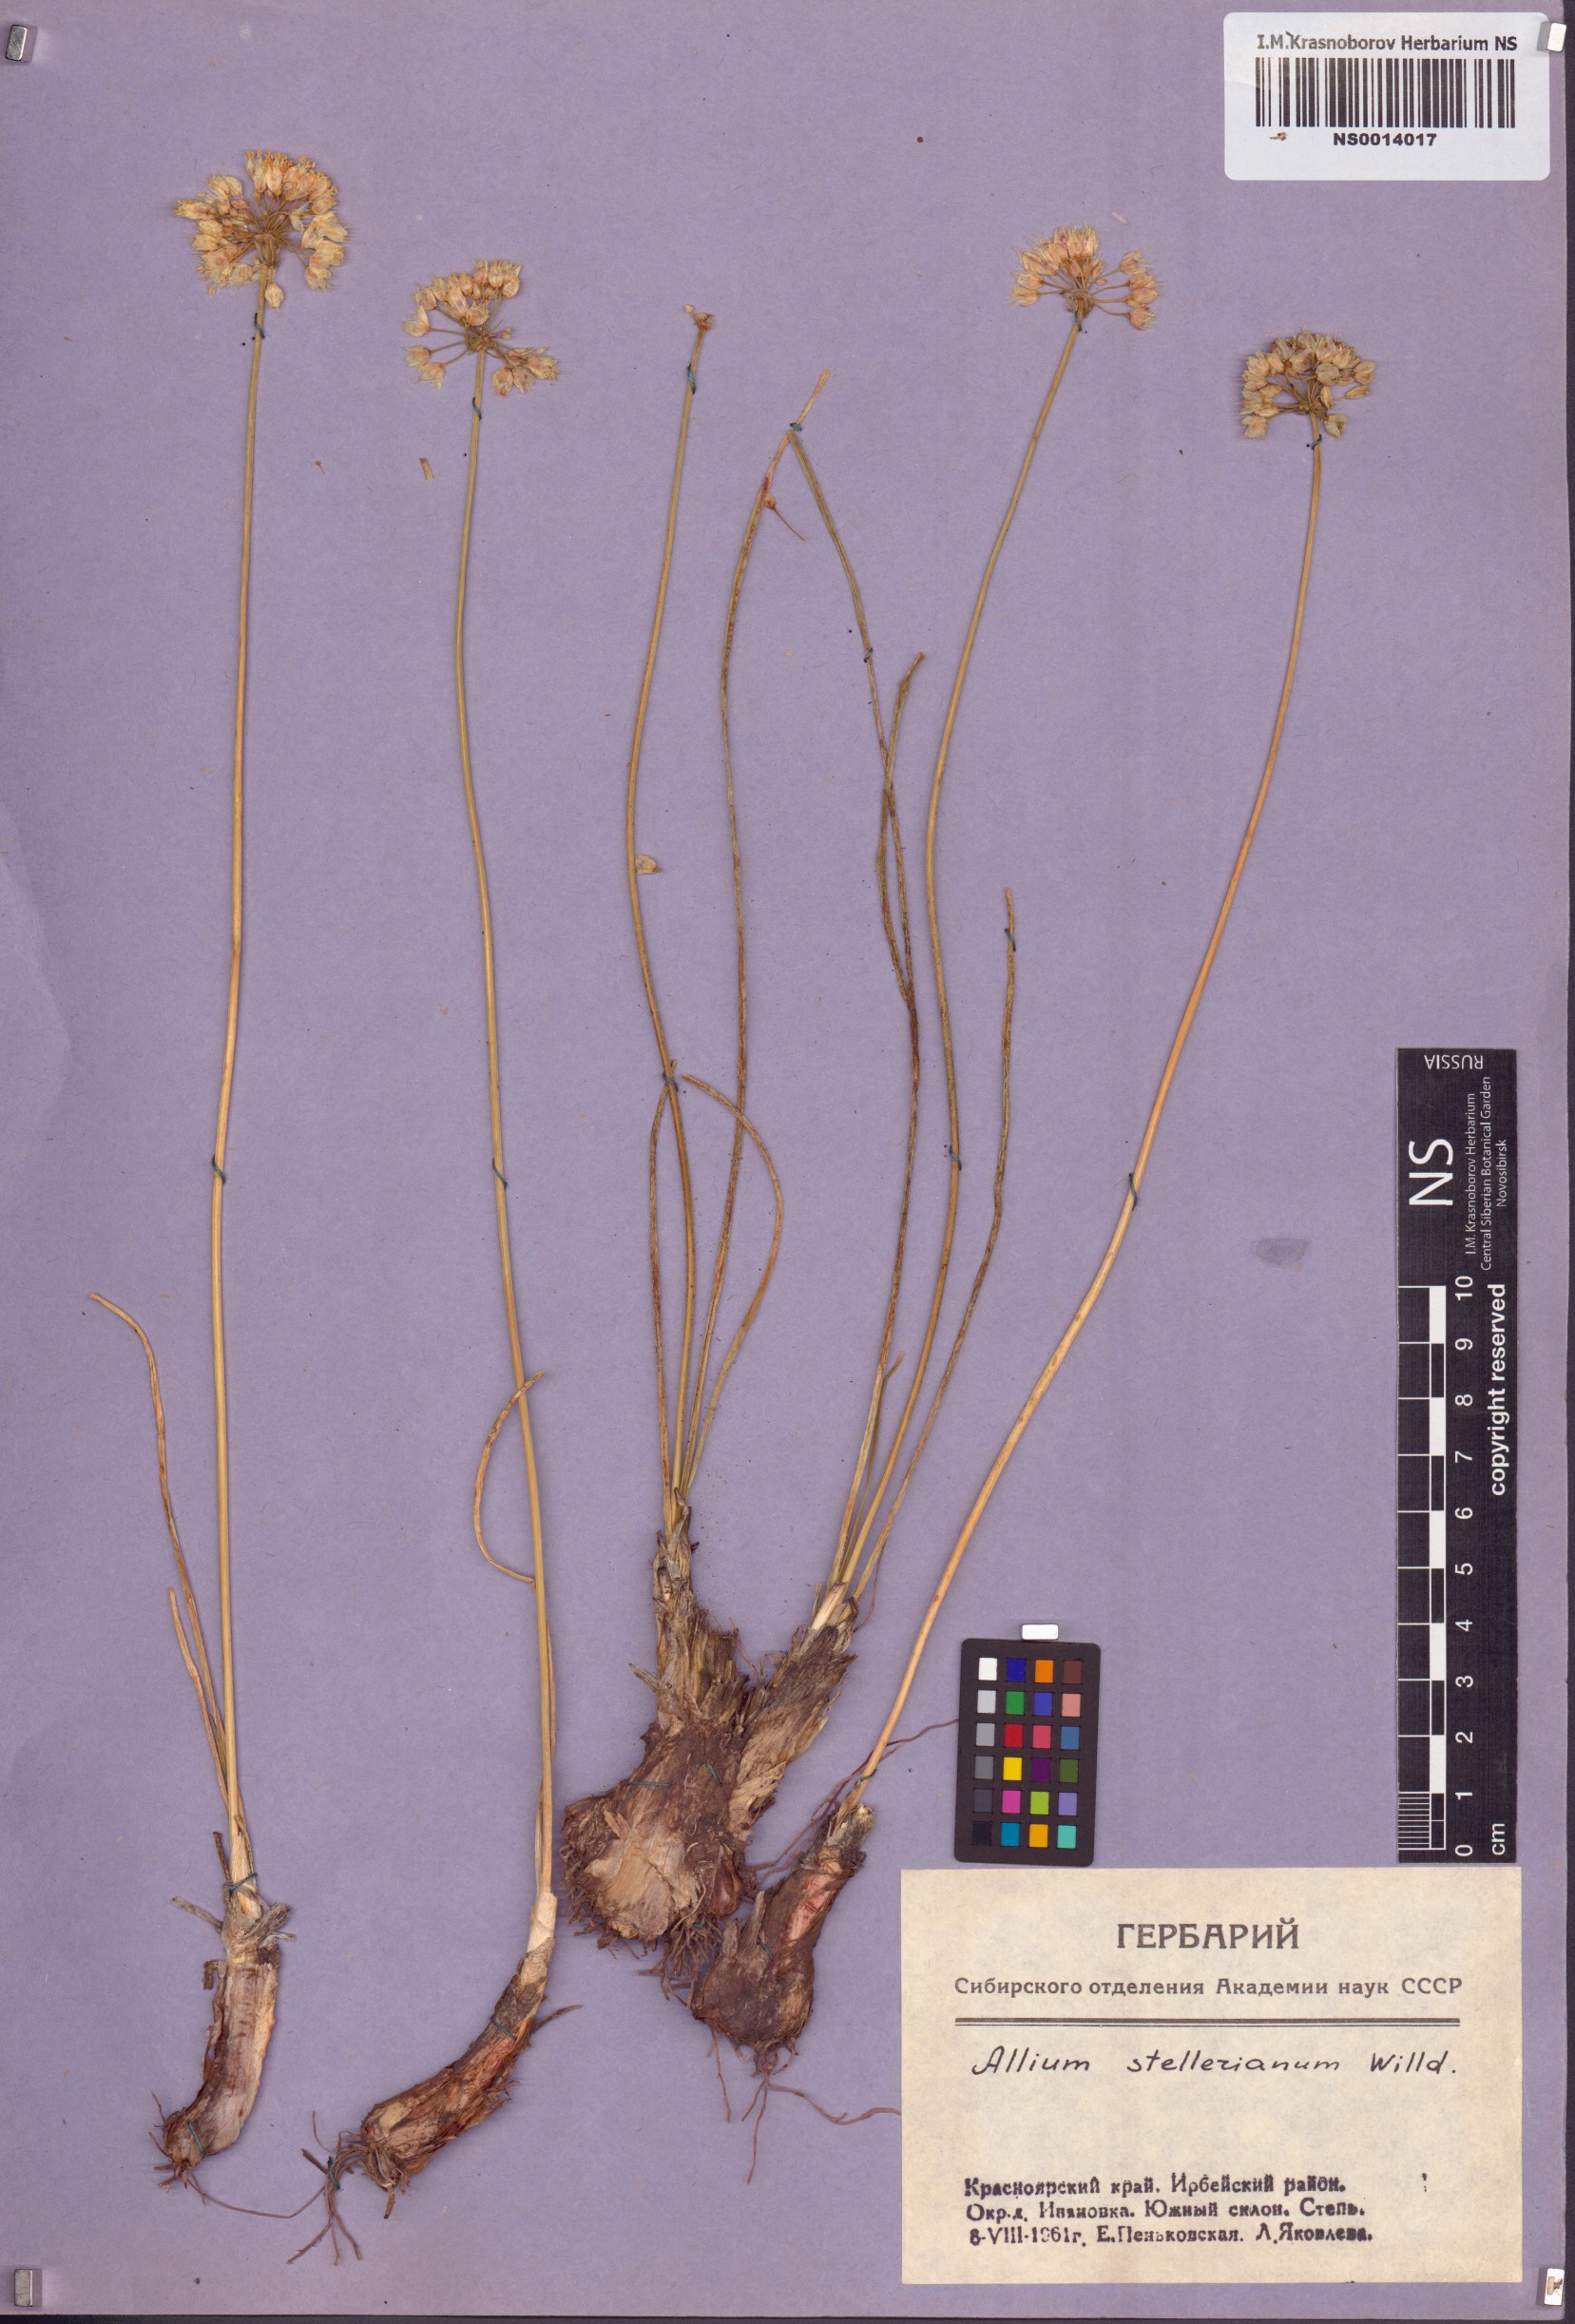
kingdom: Plantae
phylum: Tracheophyta
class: Liliopsida
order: Asparagales
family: Amaryllidaceae
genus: Allium
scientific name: Allium stellerianum
